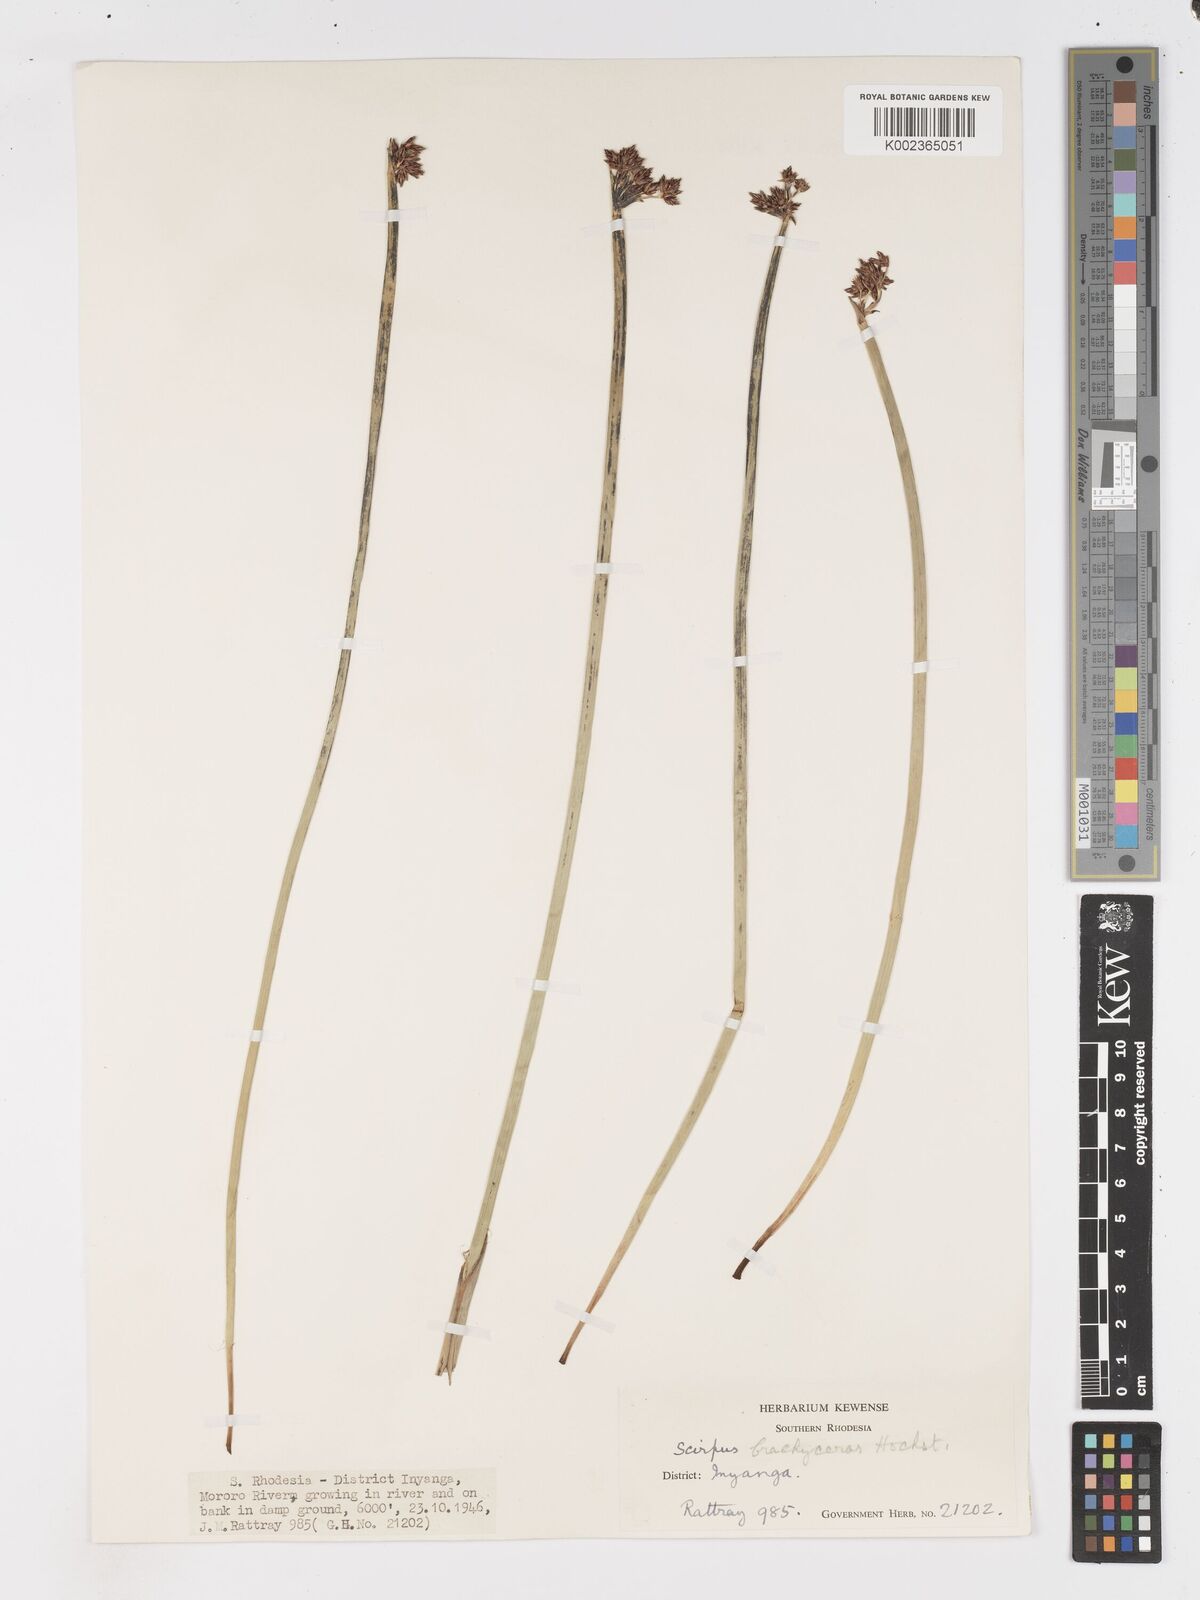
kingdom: Plantae
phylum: Tracheophyta
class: Liliopsida
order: Poales
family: Cyperaceae
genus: Schoenoplectus
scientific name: Schoenoplectus
